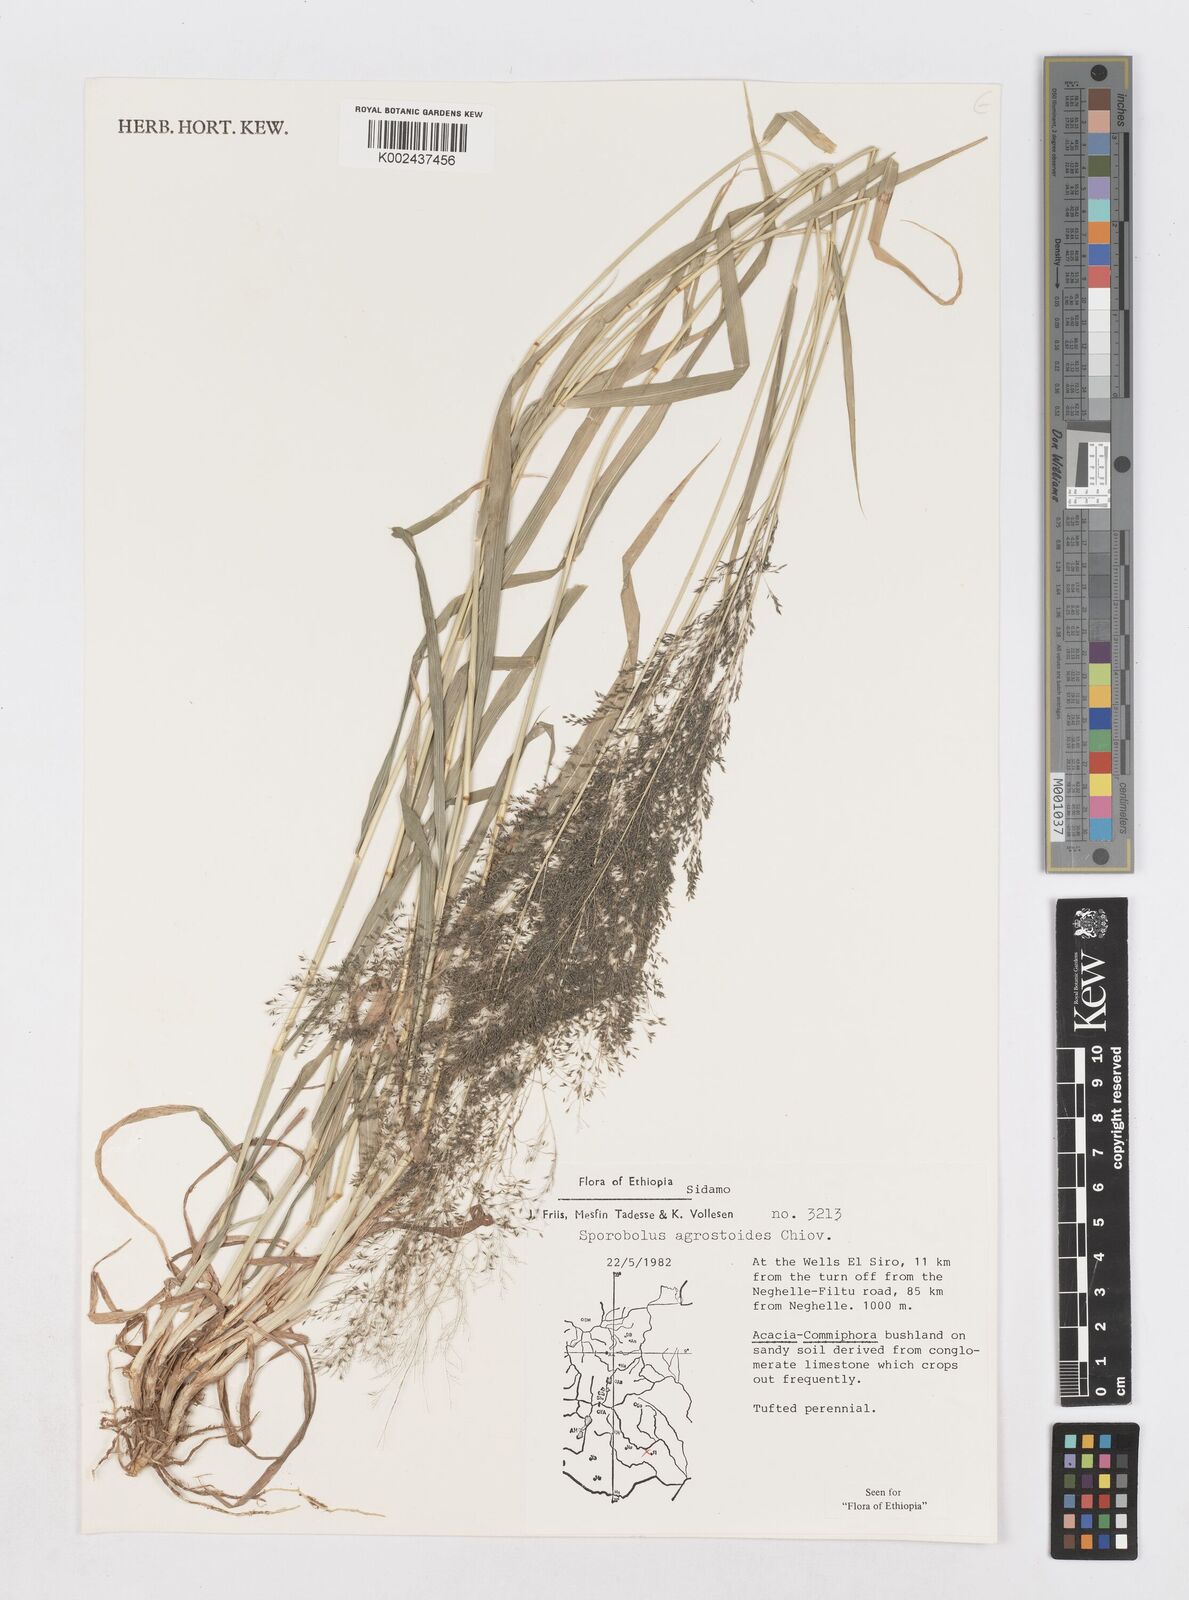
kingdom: Plantae
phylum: Tracheophyta
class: Liliopsida
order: Poales
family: Poaceae
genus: Sporobolus
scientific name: Sporobolus agrostoides
